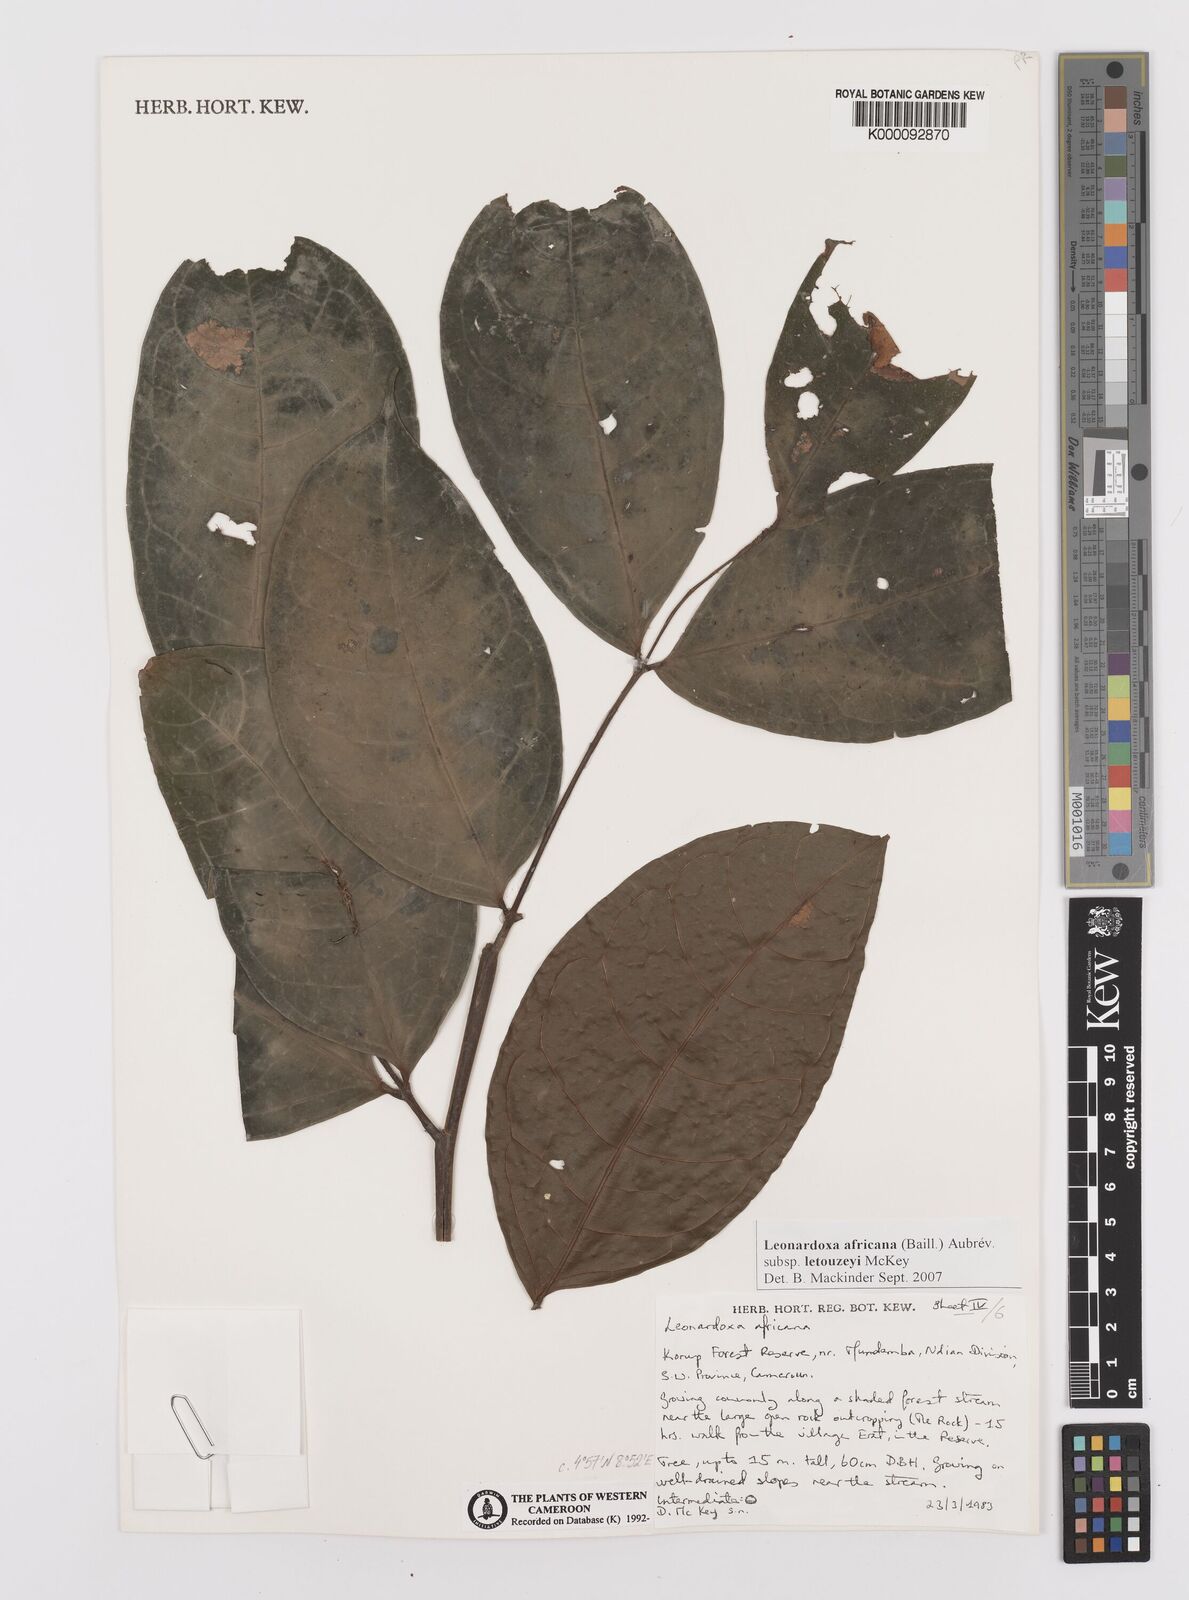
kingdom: Plantae
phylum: Tracheophyta
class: Magnoliopsida
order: Fabales
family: Fabaceae
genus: Leonardoxa
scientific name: Leonardoxa
